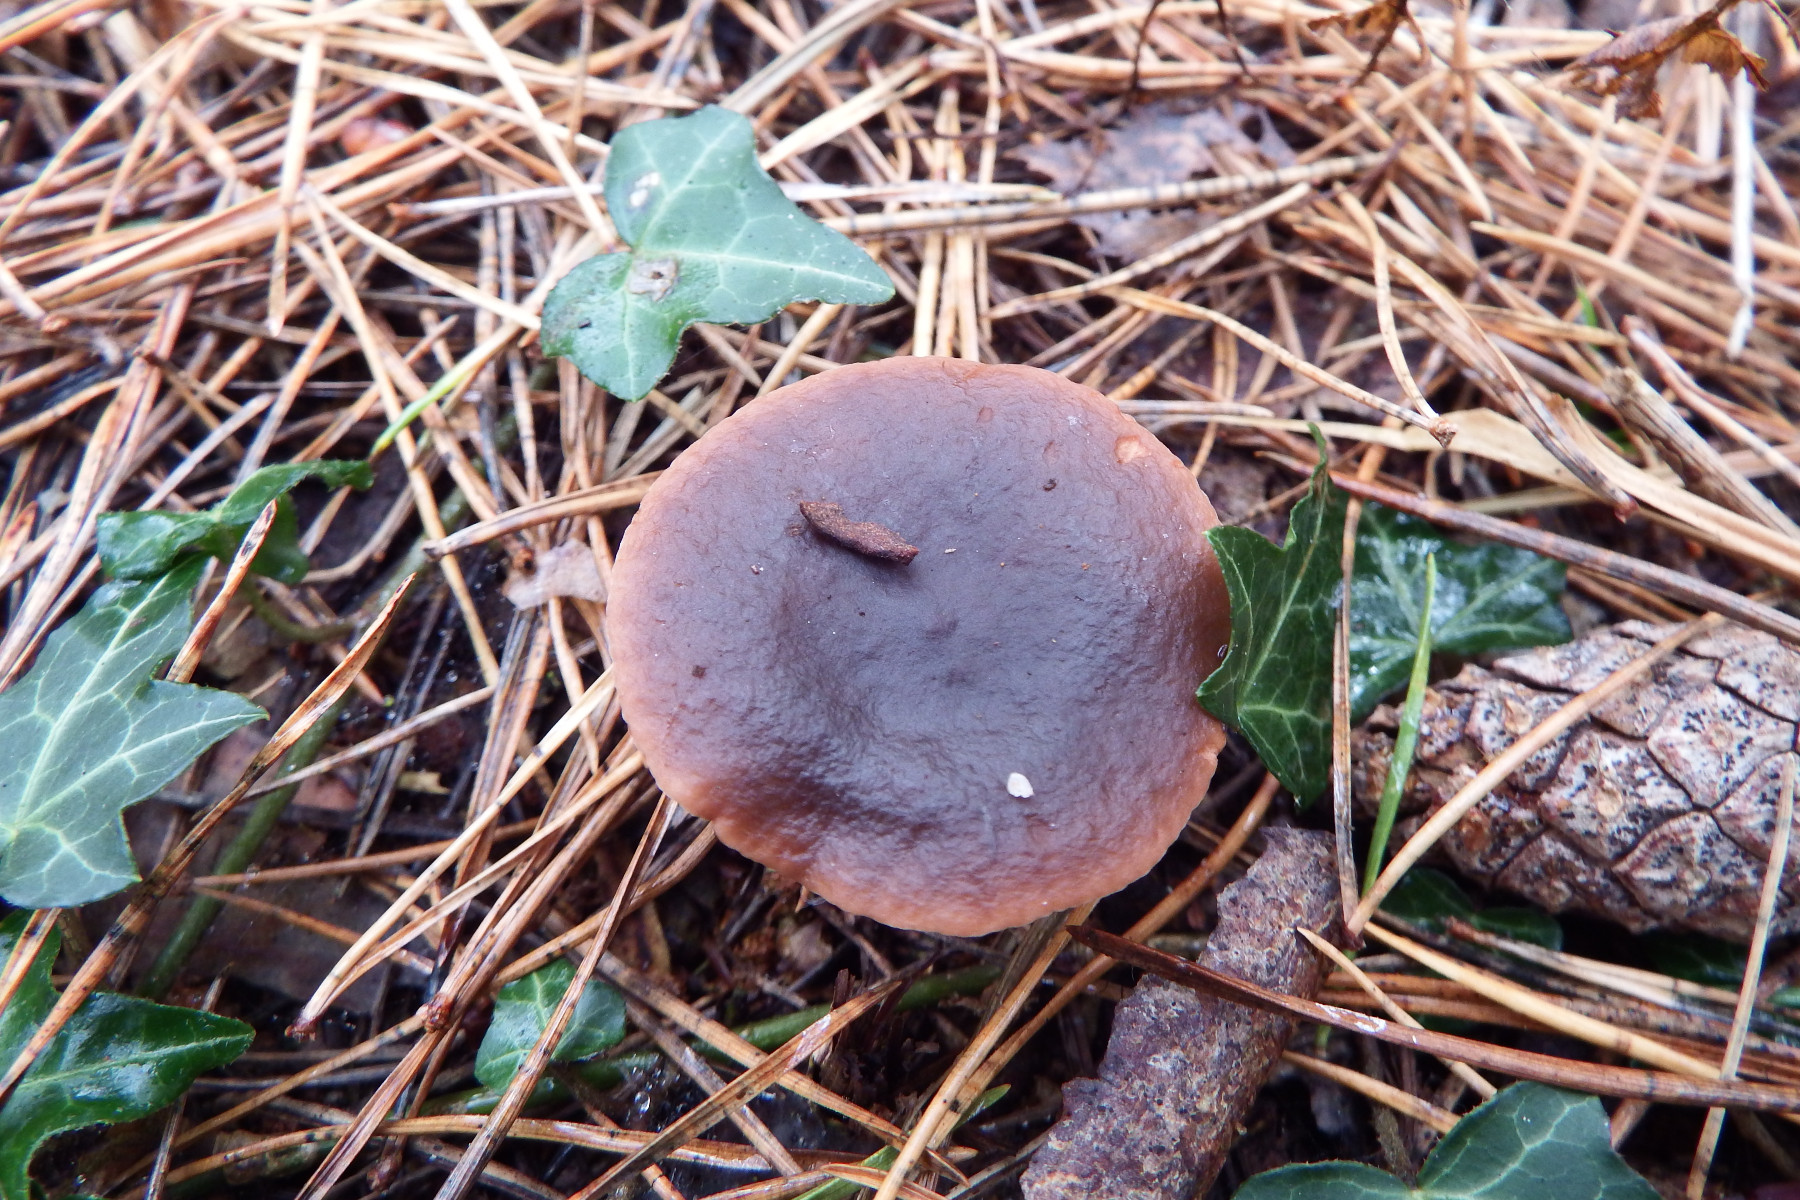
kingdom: Fungi
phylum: Basidiomycota
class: Agaricomycetes
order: Russulales
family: Russulaceae
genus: Lactarius
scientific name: Lactarius hepaticus
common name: leverbrun mælkehat
